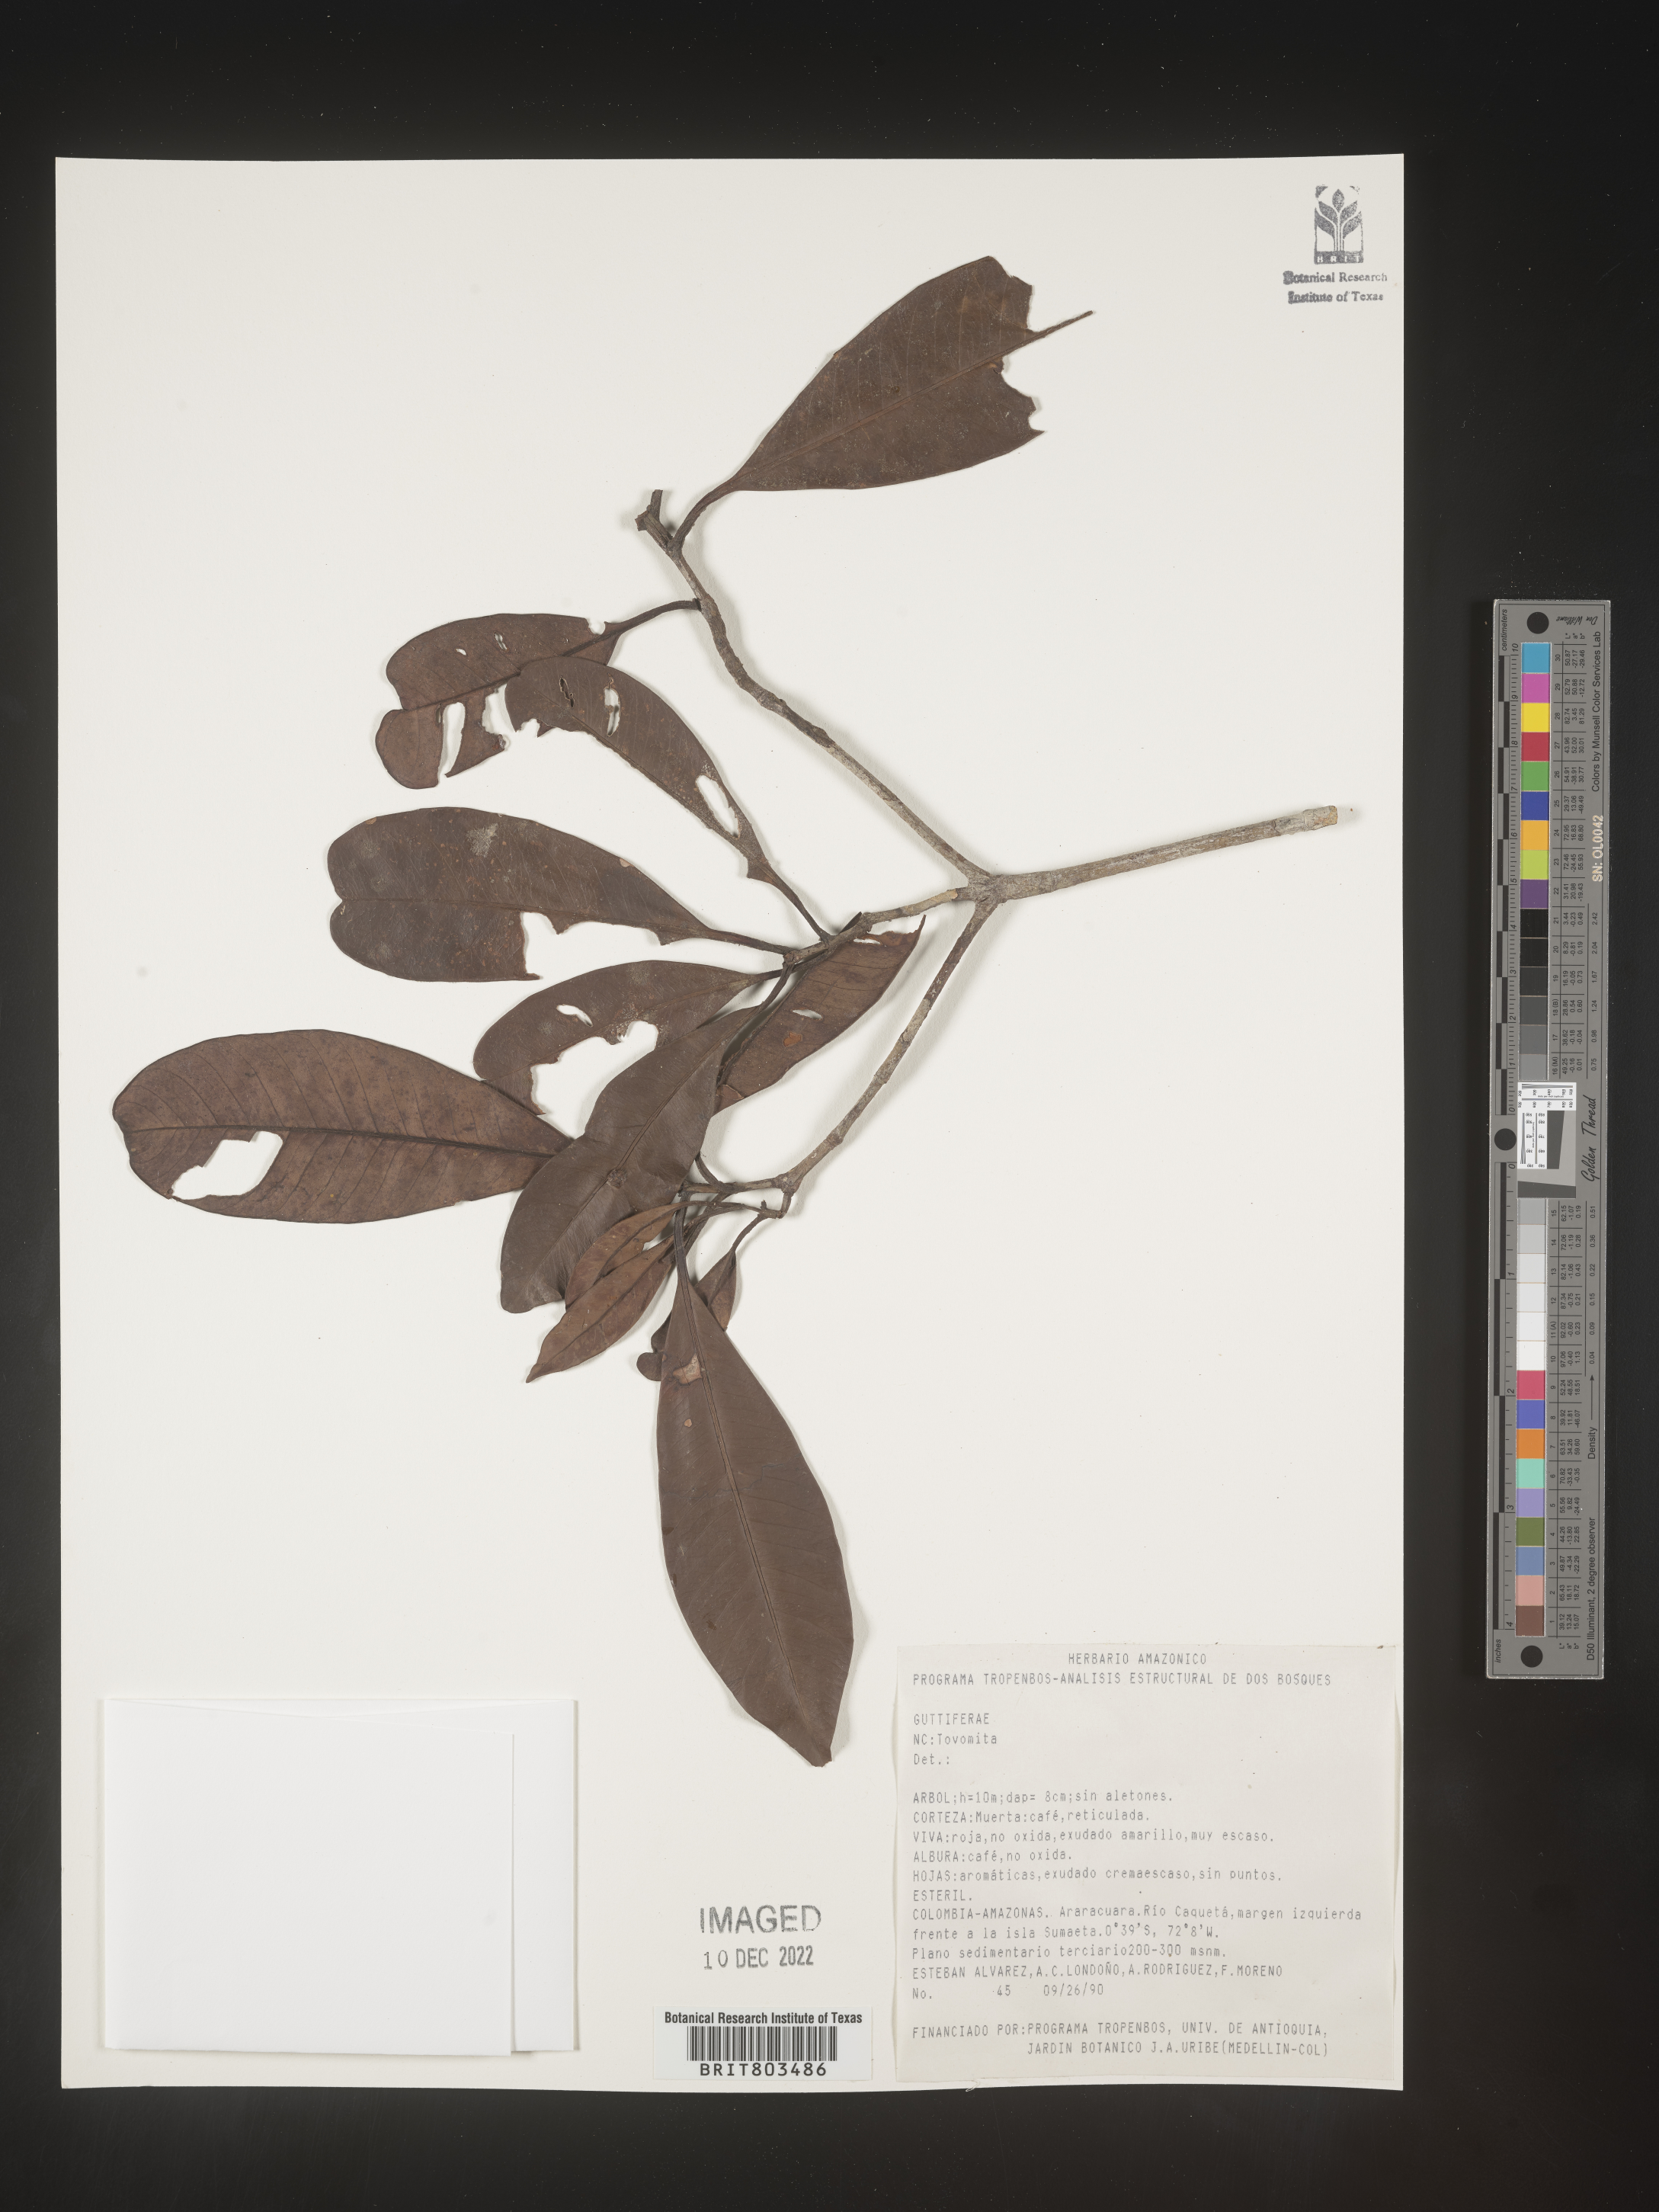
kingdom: Plantae
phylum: Tracheophyta
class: Magnoliopsida
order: Malpighiales
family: Clusiaceae
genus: Tovomita
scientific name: Tovomita
